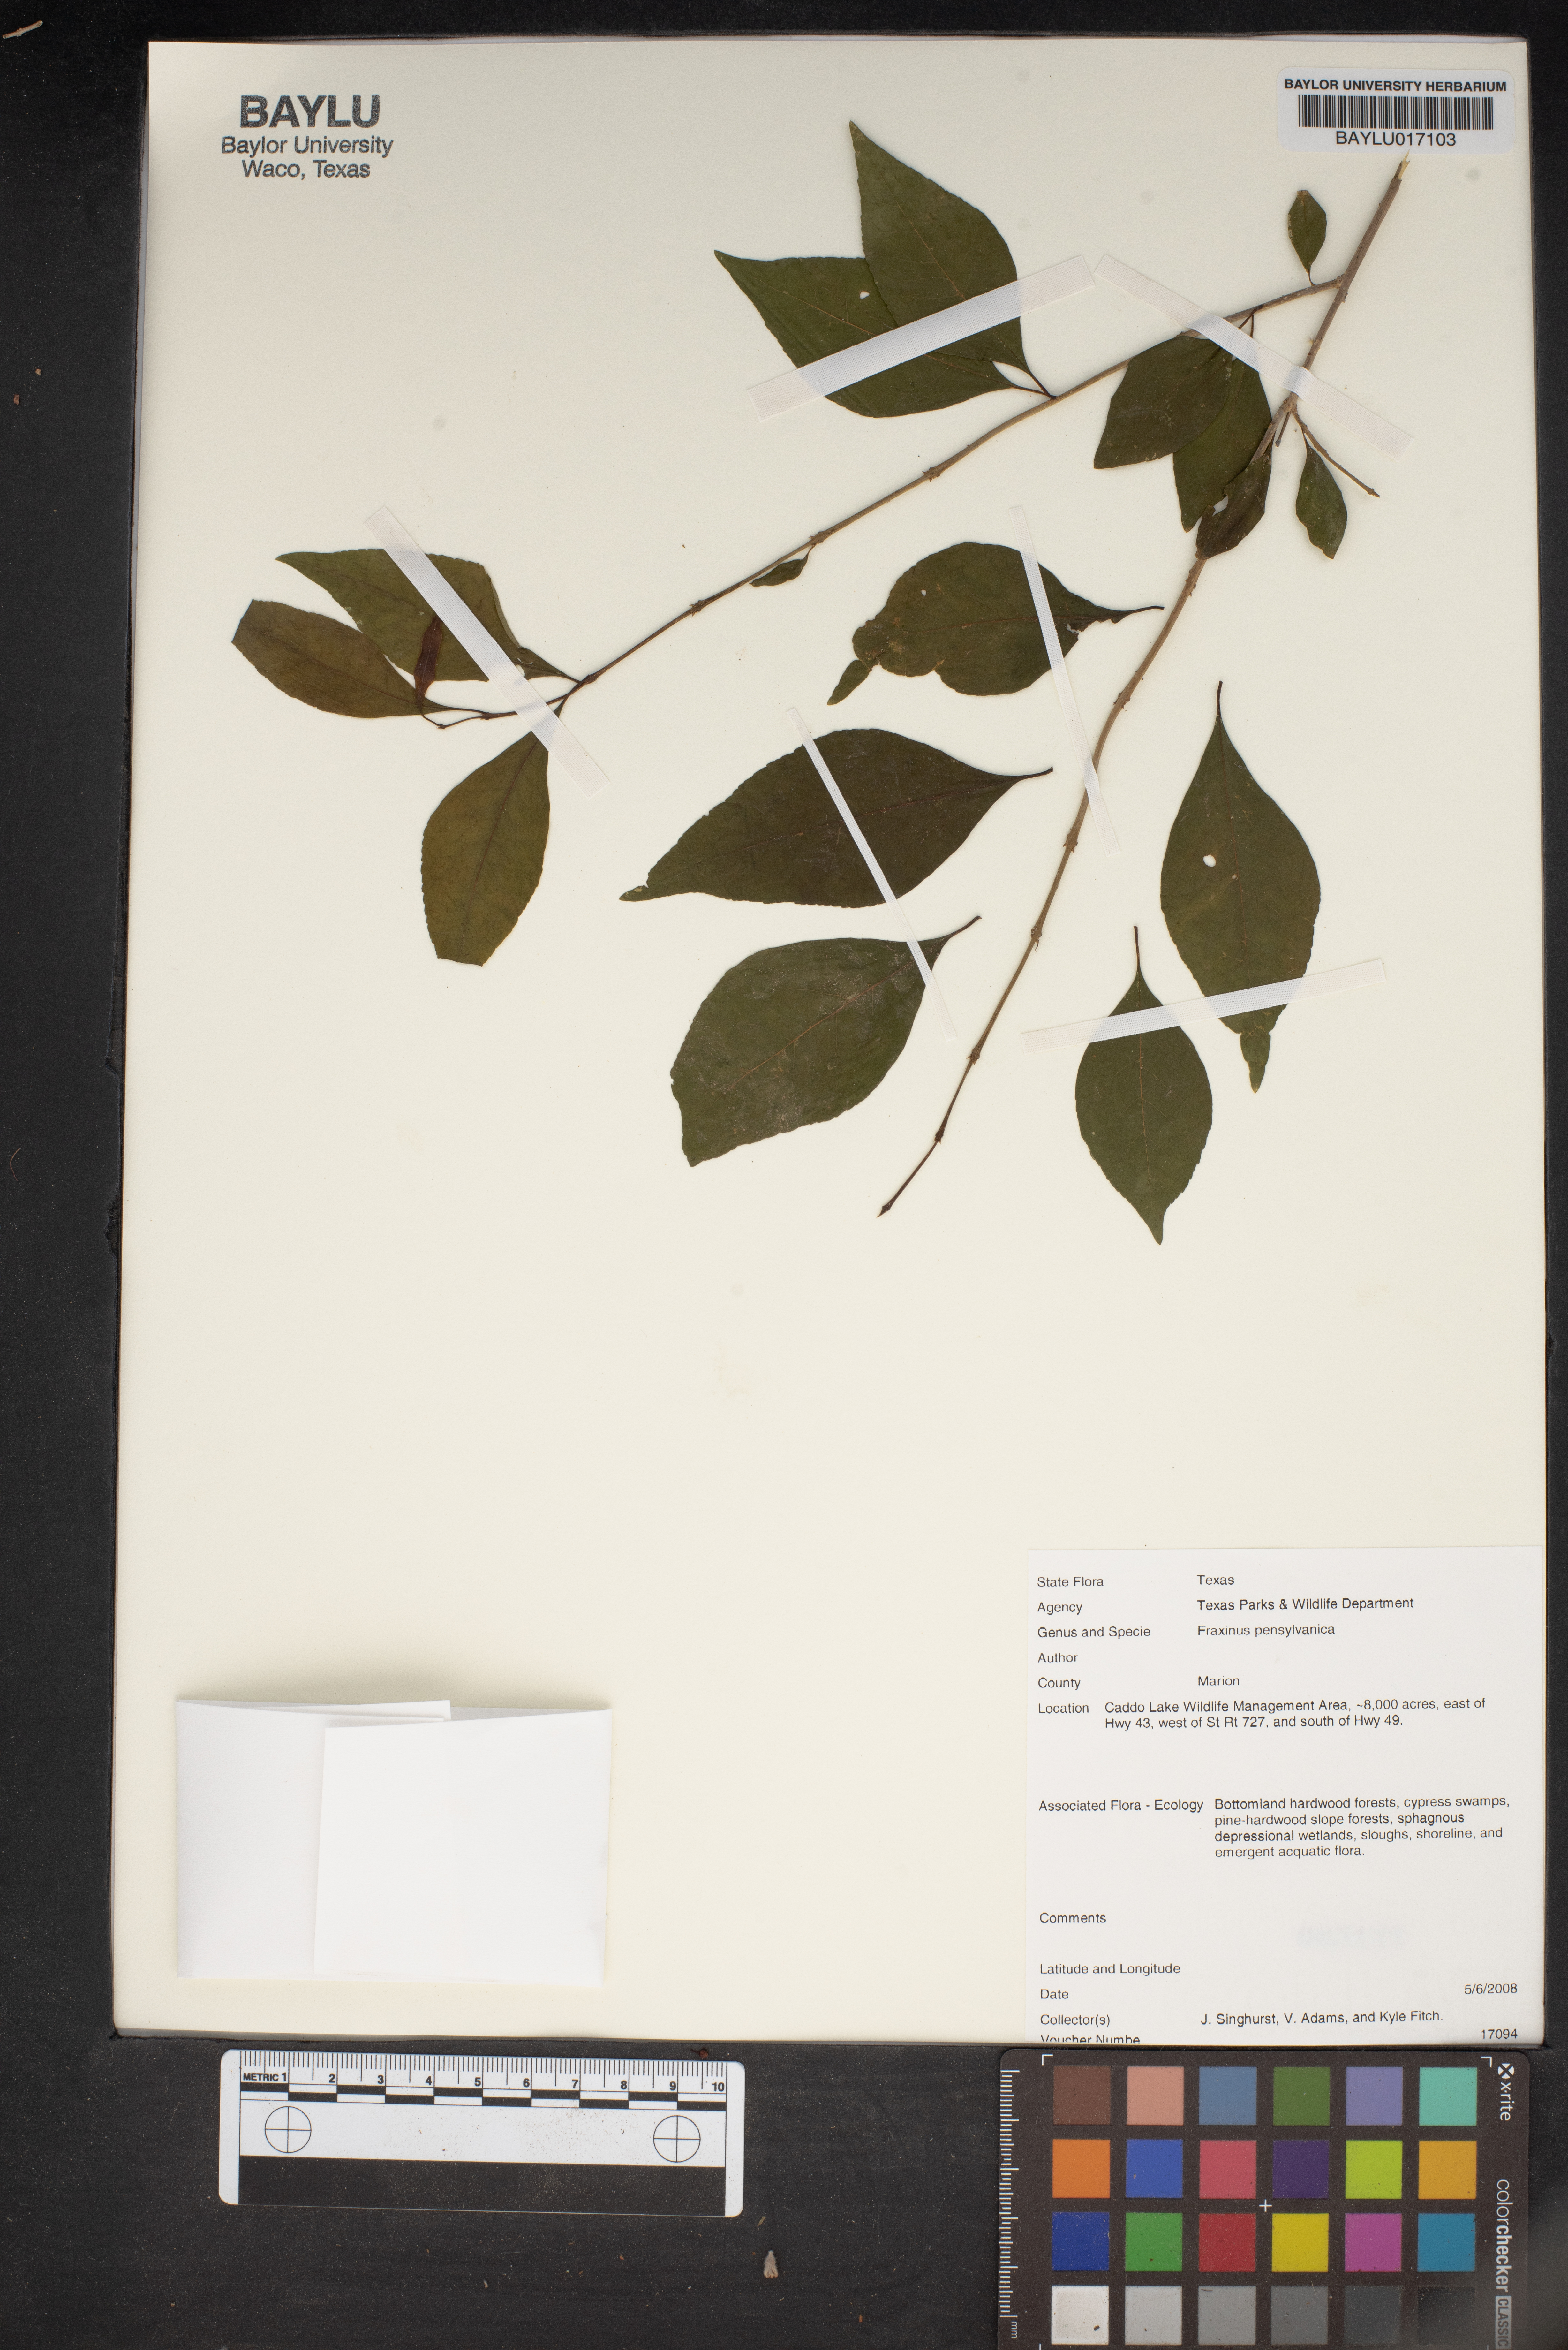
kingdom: Plantae
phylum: Tracheophyta
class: Magnoliopsida
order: Lamiales
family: Oleaceae
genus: Fraxinus
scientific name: Fraxinus pennsylvanica
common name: Green ash
